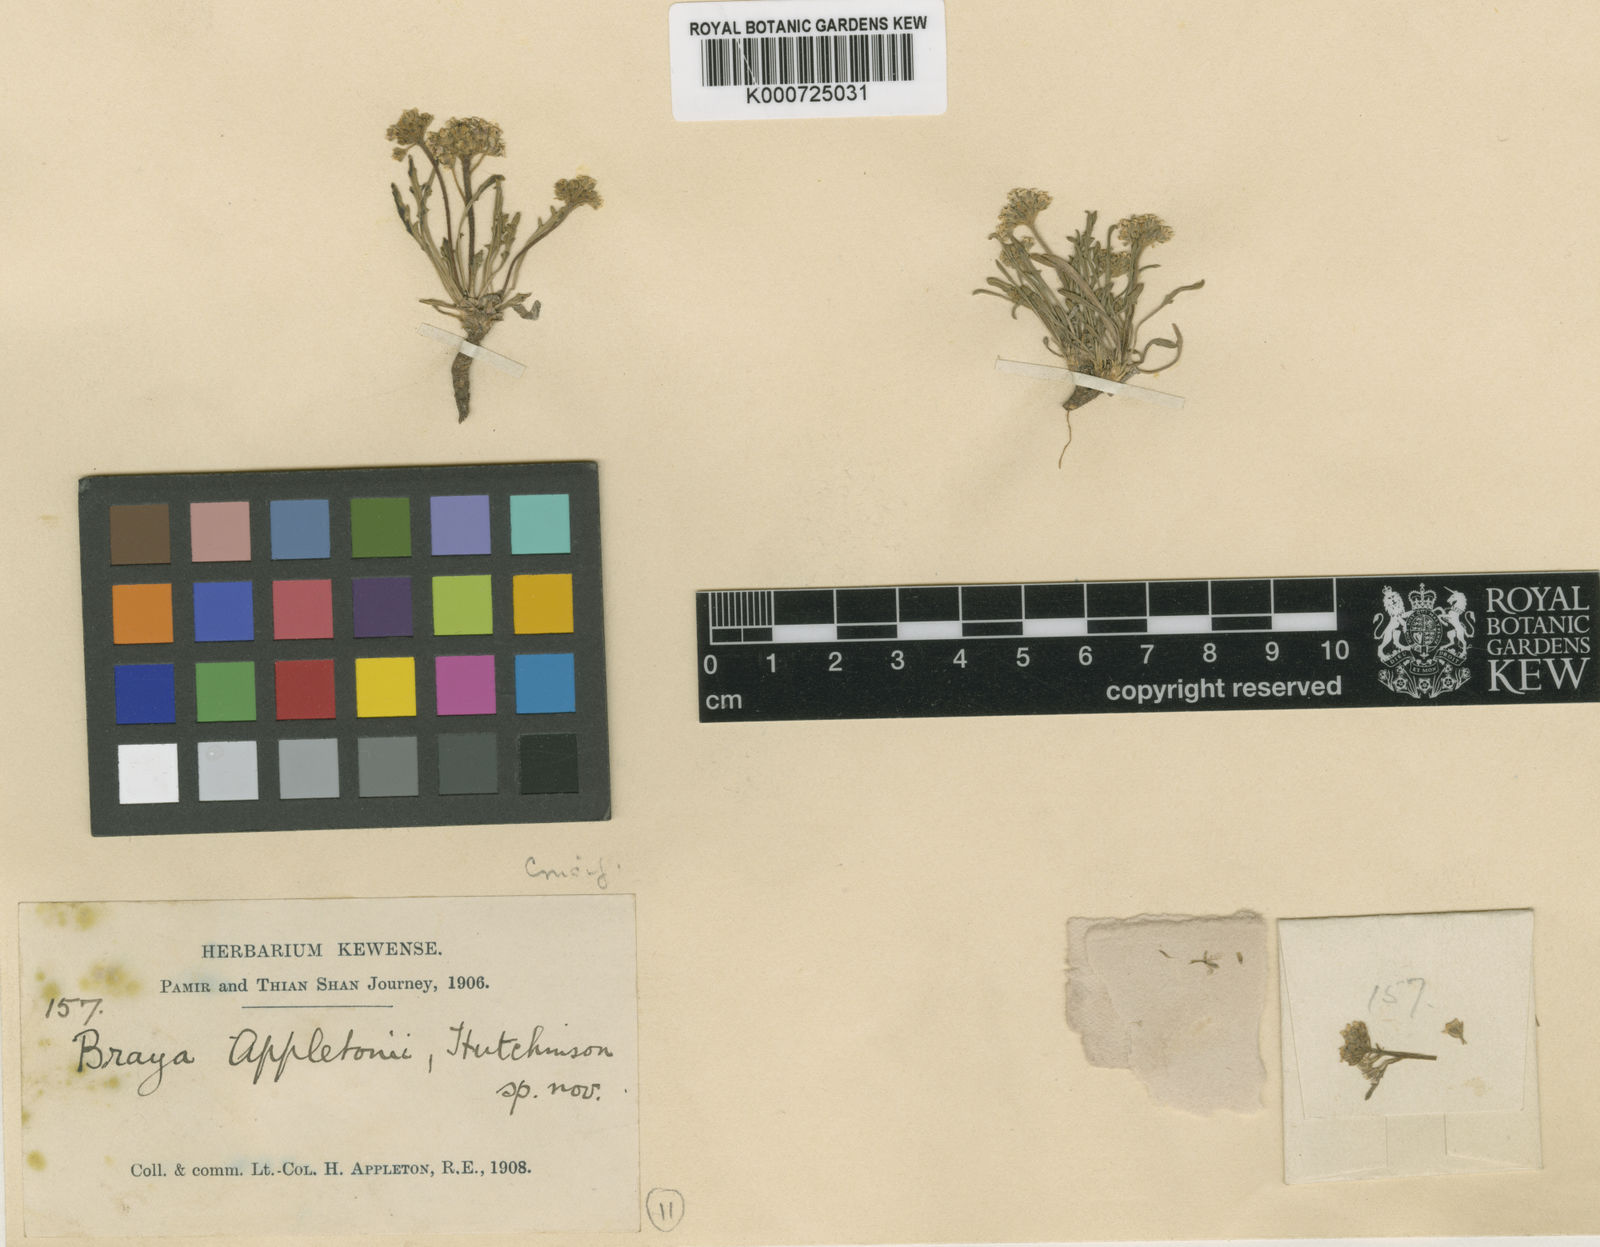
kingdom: Plantae
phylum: Tracheophyta
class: Magnoliopsida
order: Brassicales
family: Brassicaceae
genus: Braya
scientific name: Braya
